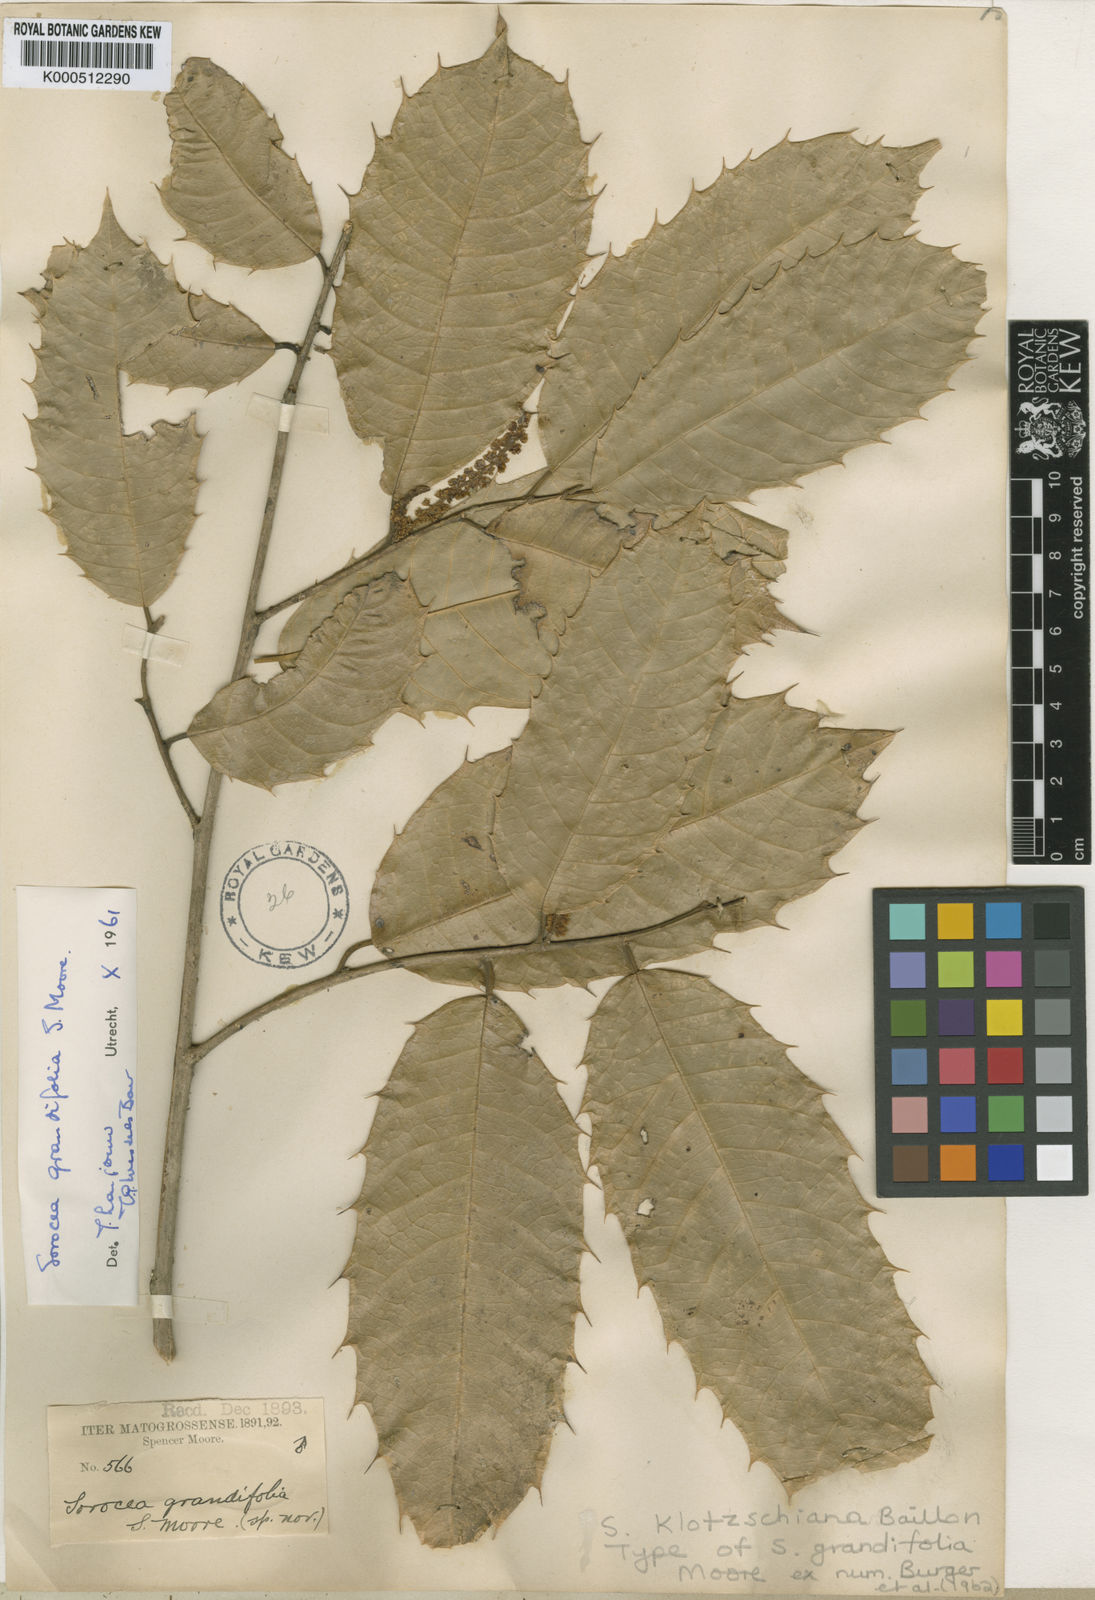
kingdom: Plantae
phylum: Tracheophyta
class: Magnoliopsida
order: Rosales
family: Moraceae
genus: Sorocea
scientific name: Sorocea guilleminiana
